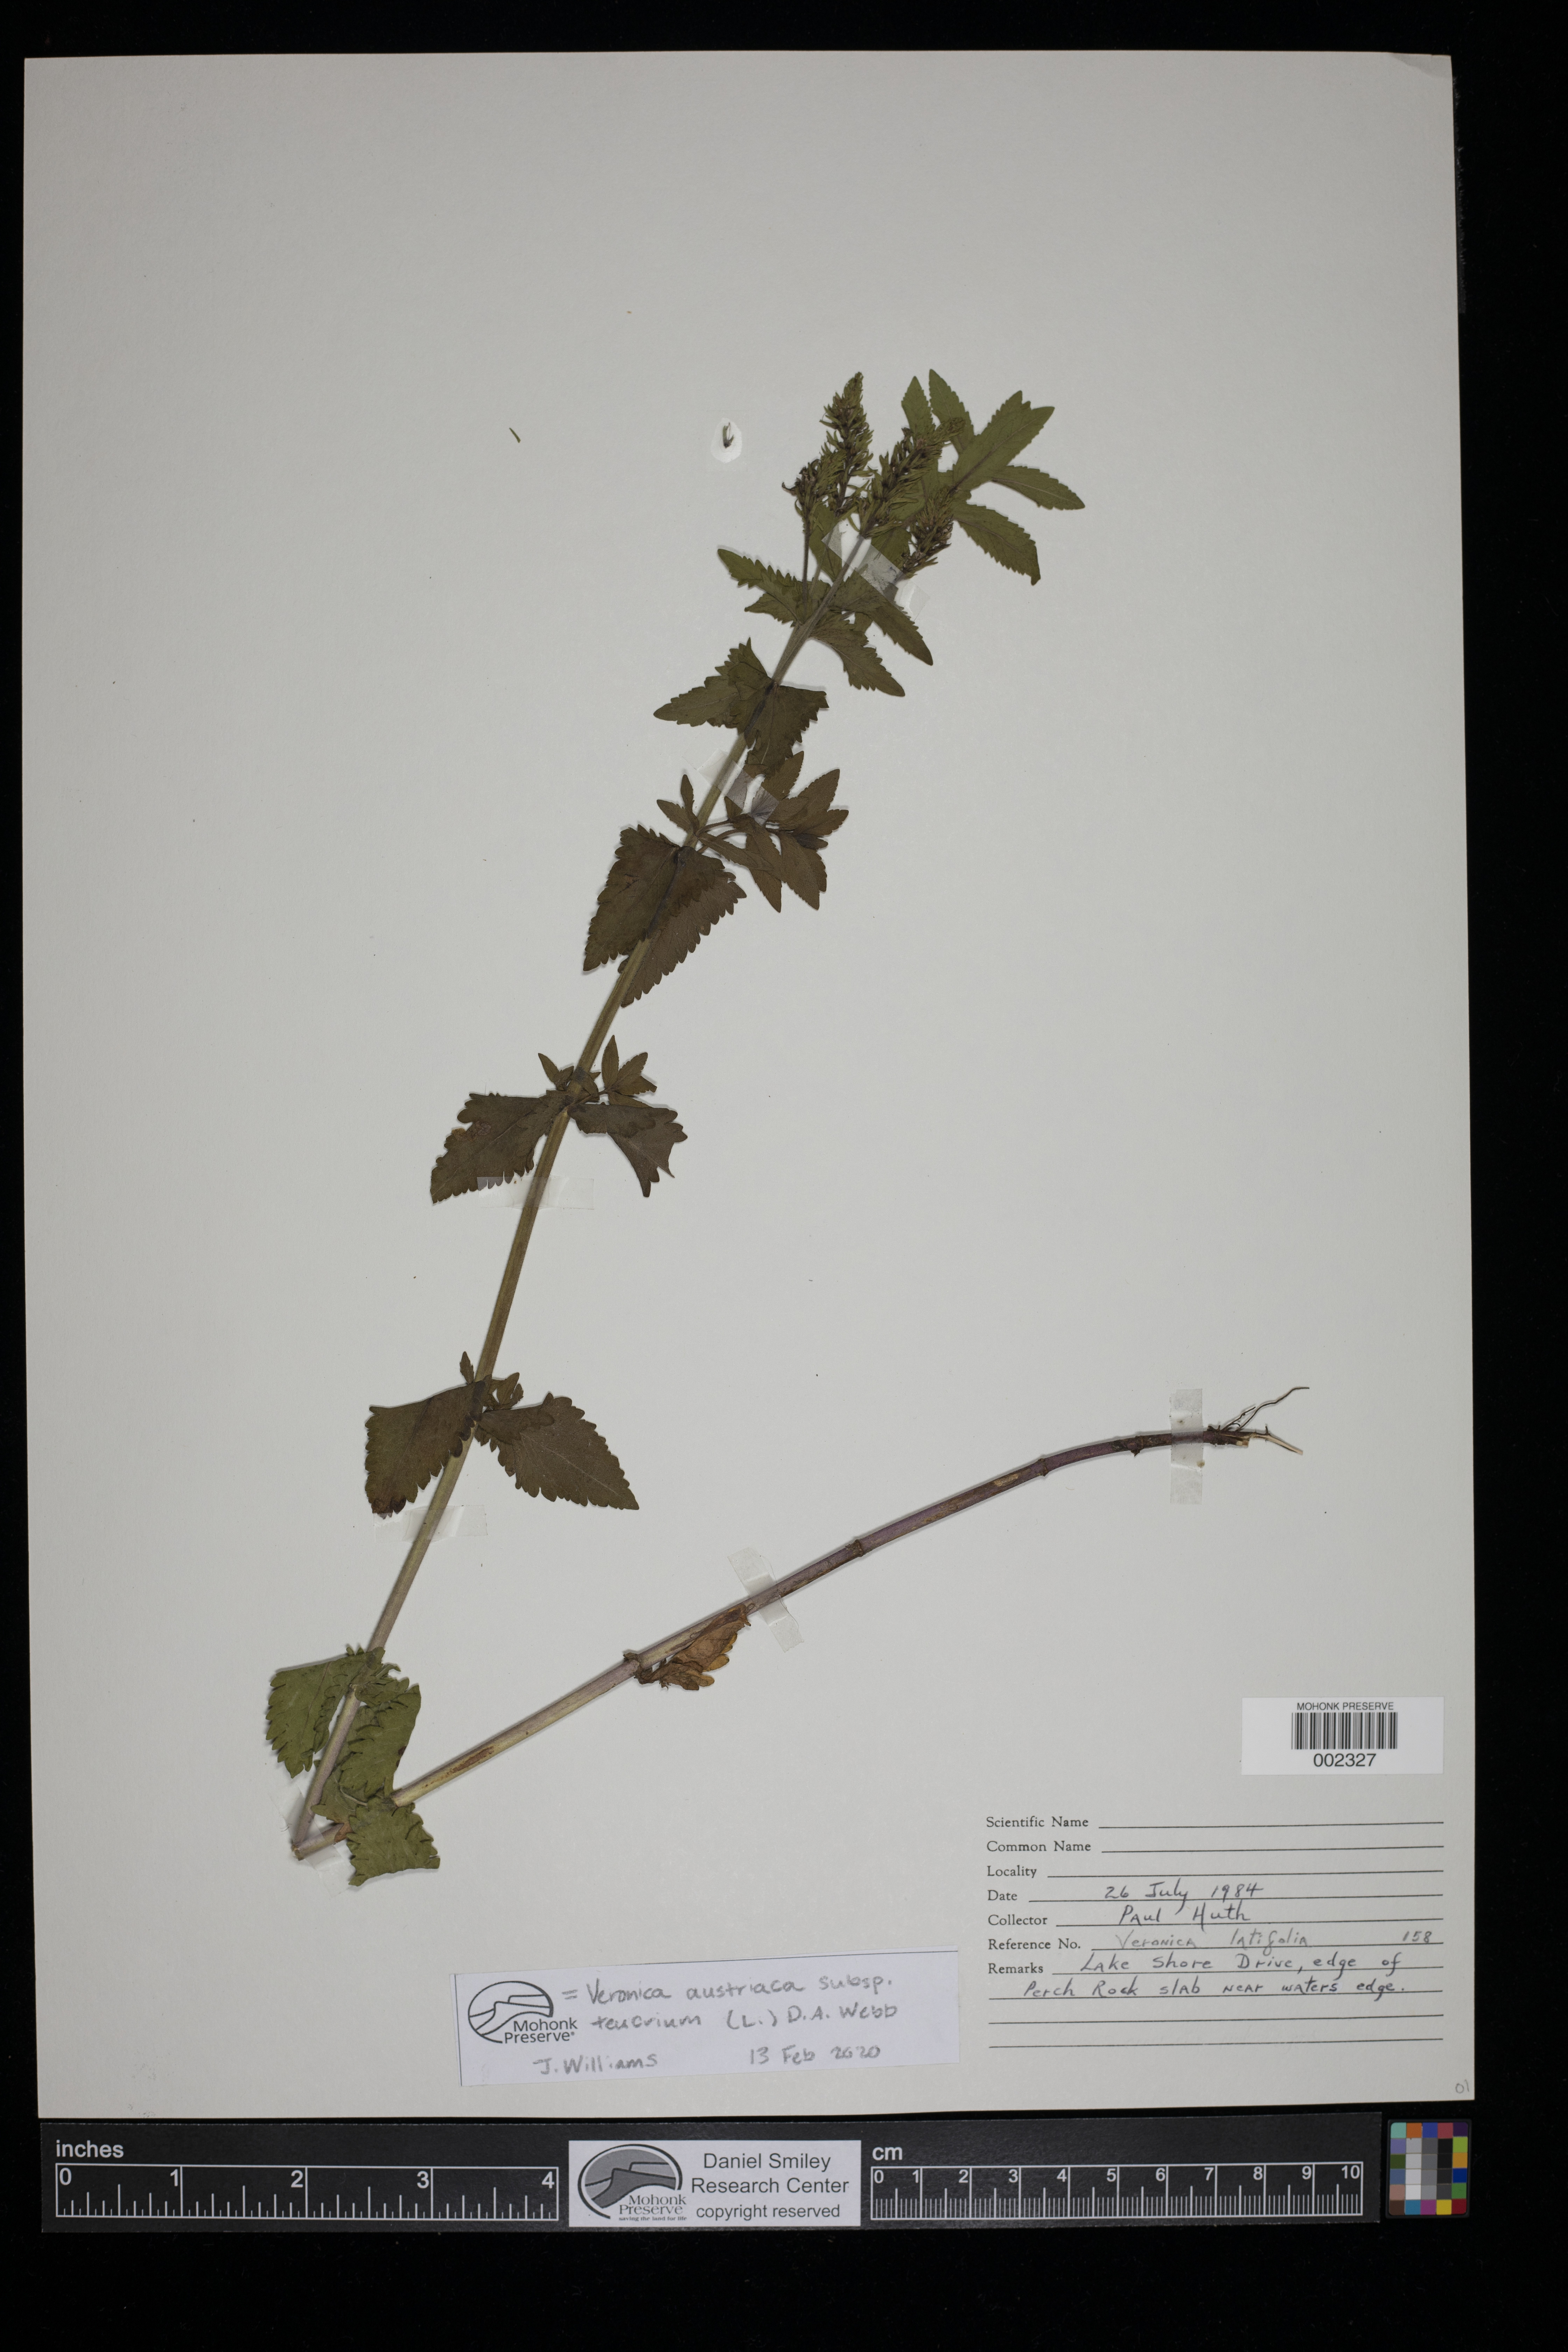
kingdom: Plantae
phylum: Tracheophyta
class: Magnoliopsida
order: Lamiales
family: Plantaginaceae
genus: Veronica
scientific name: Veronica teucrium
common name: Large speedwell
